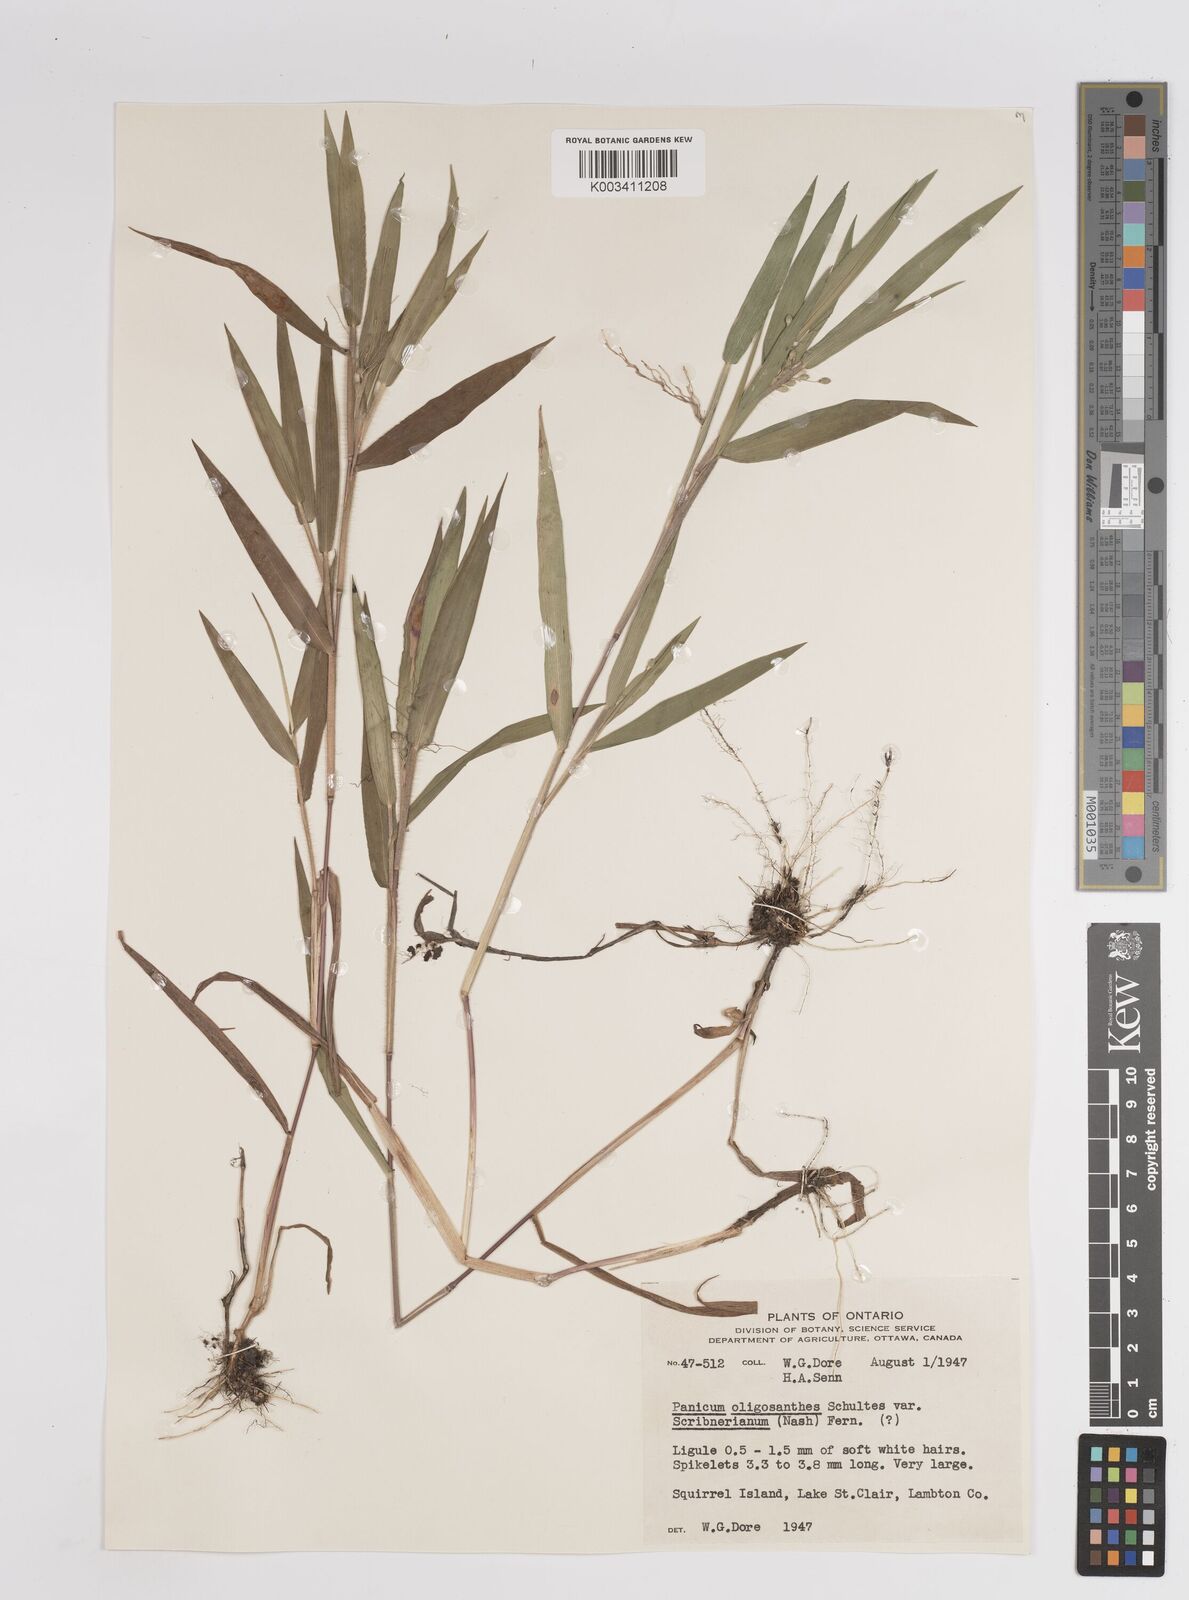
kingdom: Plantae
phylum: Tracheophyta
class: Liliopsida
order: Poales
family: Poaceae
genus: Dichanthelium
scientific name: Dichanthelium oligosanthes
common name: Few-anther obscuregrass
